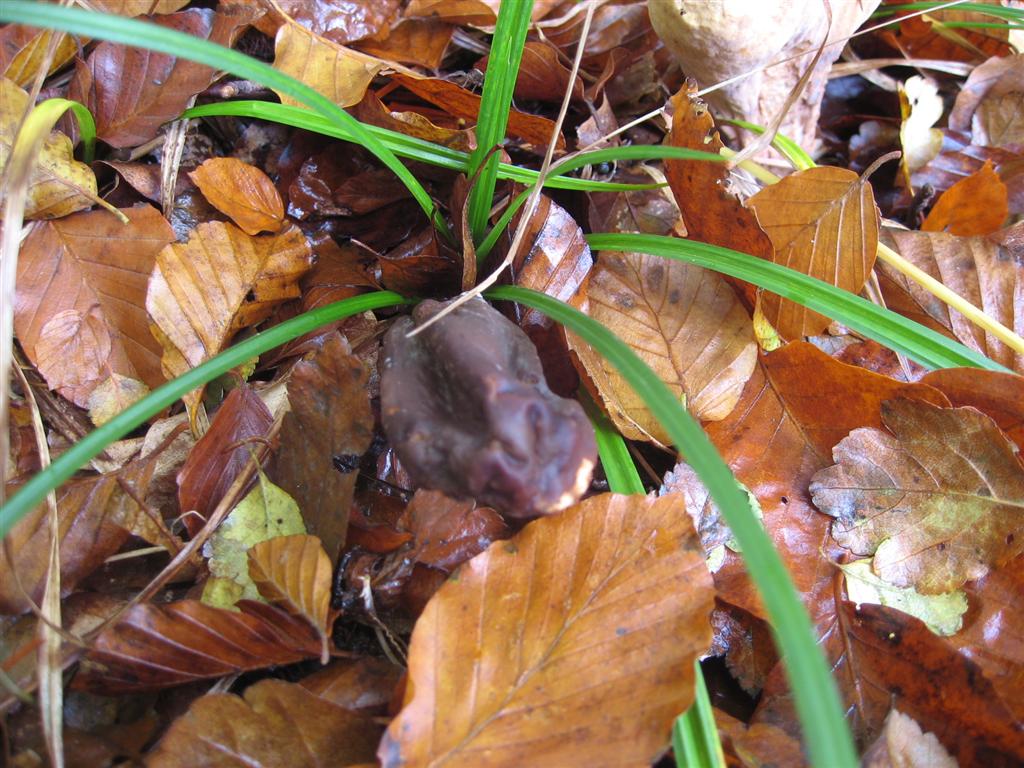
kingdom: Fungi
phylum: Basidiomycota
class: Agaricomycetes
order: Gomphales
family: Clavariadelphaceae
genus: Clavariadelphus
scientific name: Clavariadelphus pistillaris
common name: herkules-kæmpekølle
